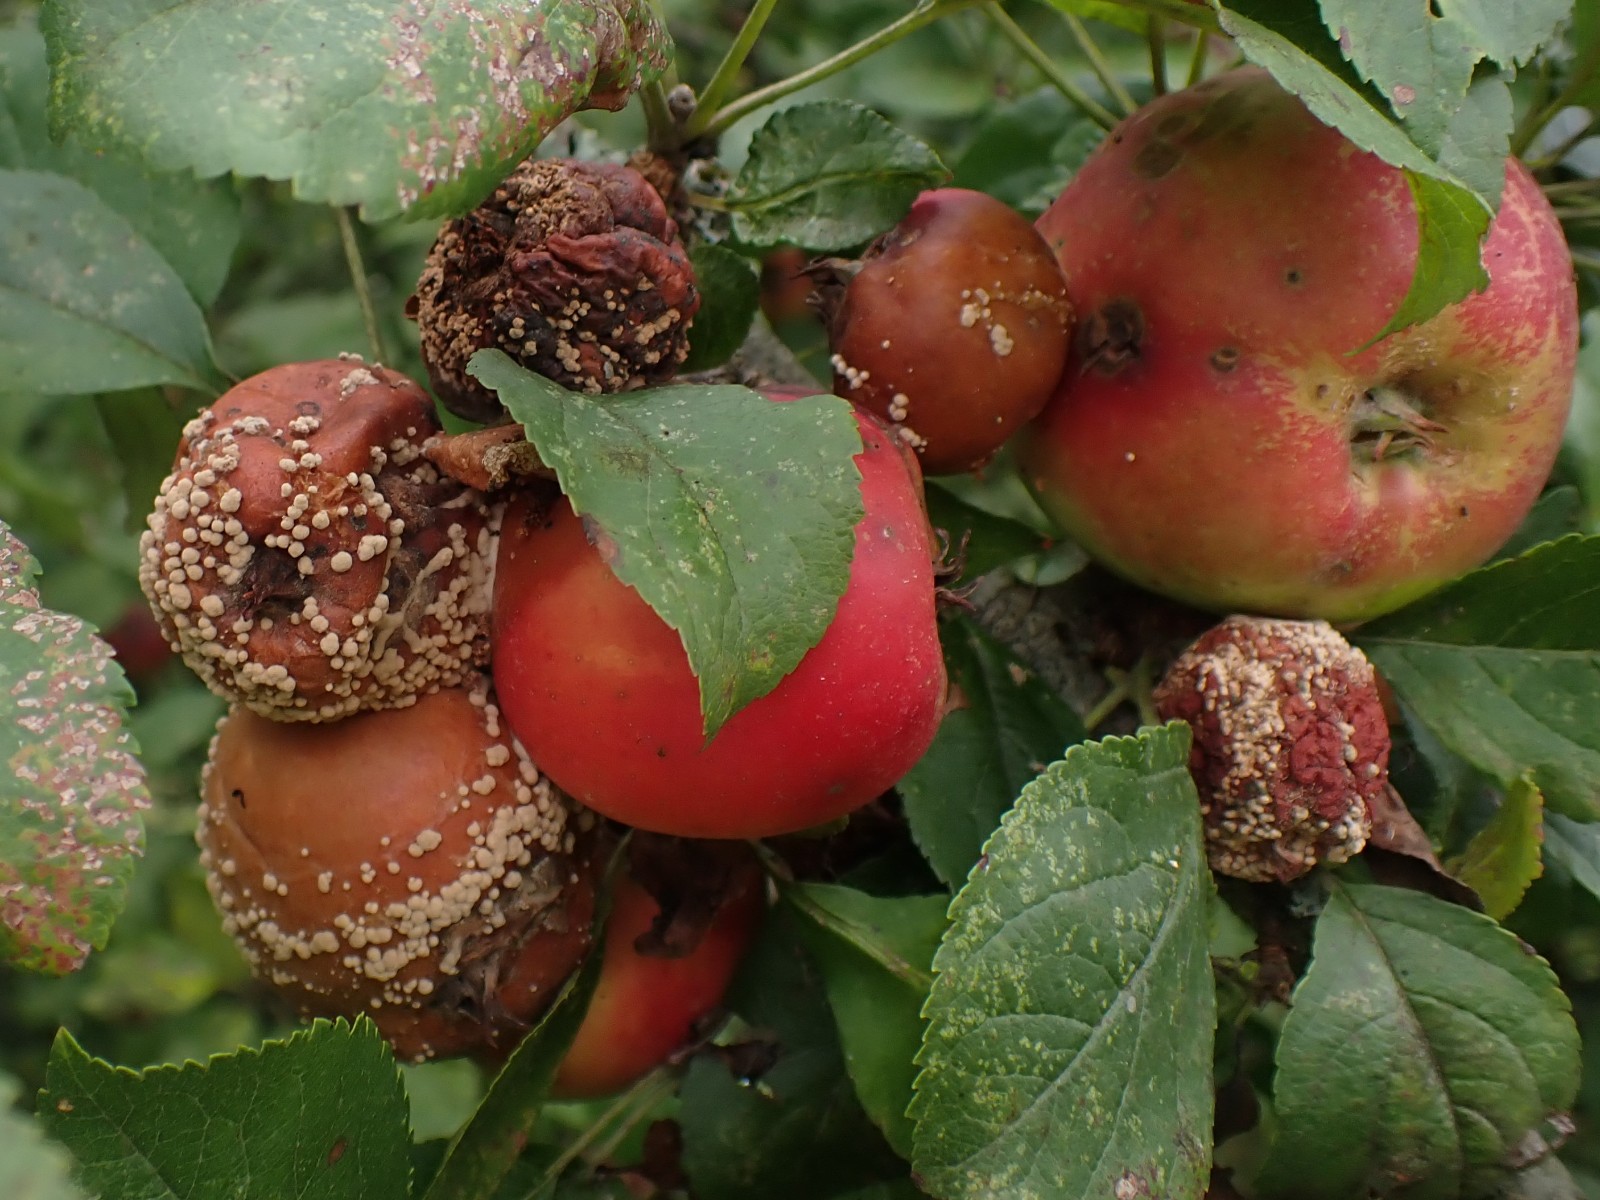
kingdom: Fungi
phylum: Ascomycota
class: Leotiomycetes
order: Helotiales
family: Sclerotiniaceae
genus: Monilinia
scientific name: Monilinia fructigena
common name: æble-knoldskive
